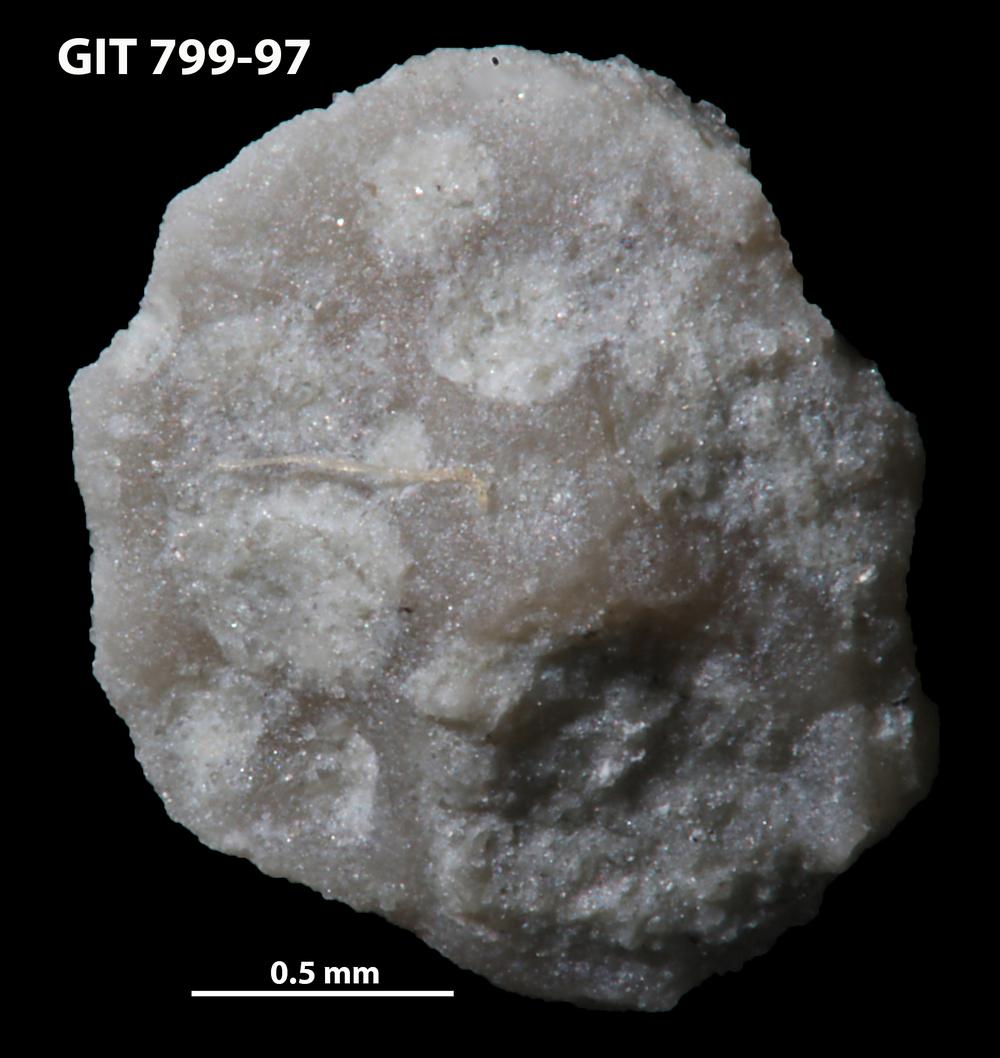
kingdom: Animalia
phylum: Echinodermata
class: Echinoidea
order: Bothriocidaroida
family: Bothriocidaridae
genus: Neobothriocidaris
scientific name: Neobothriocidaris
